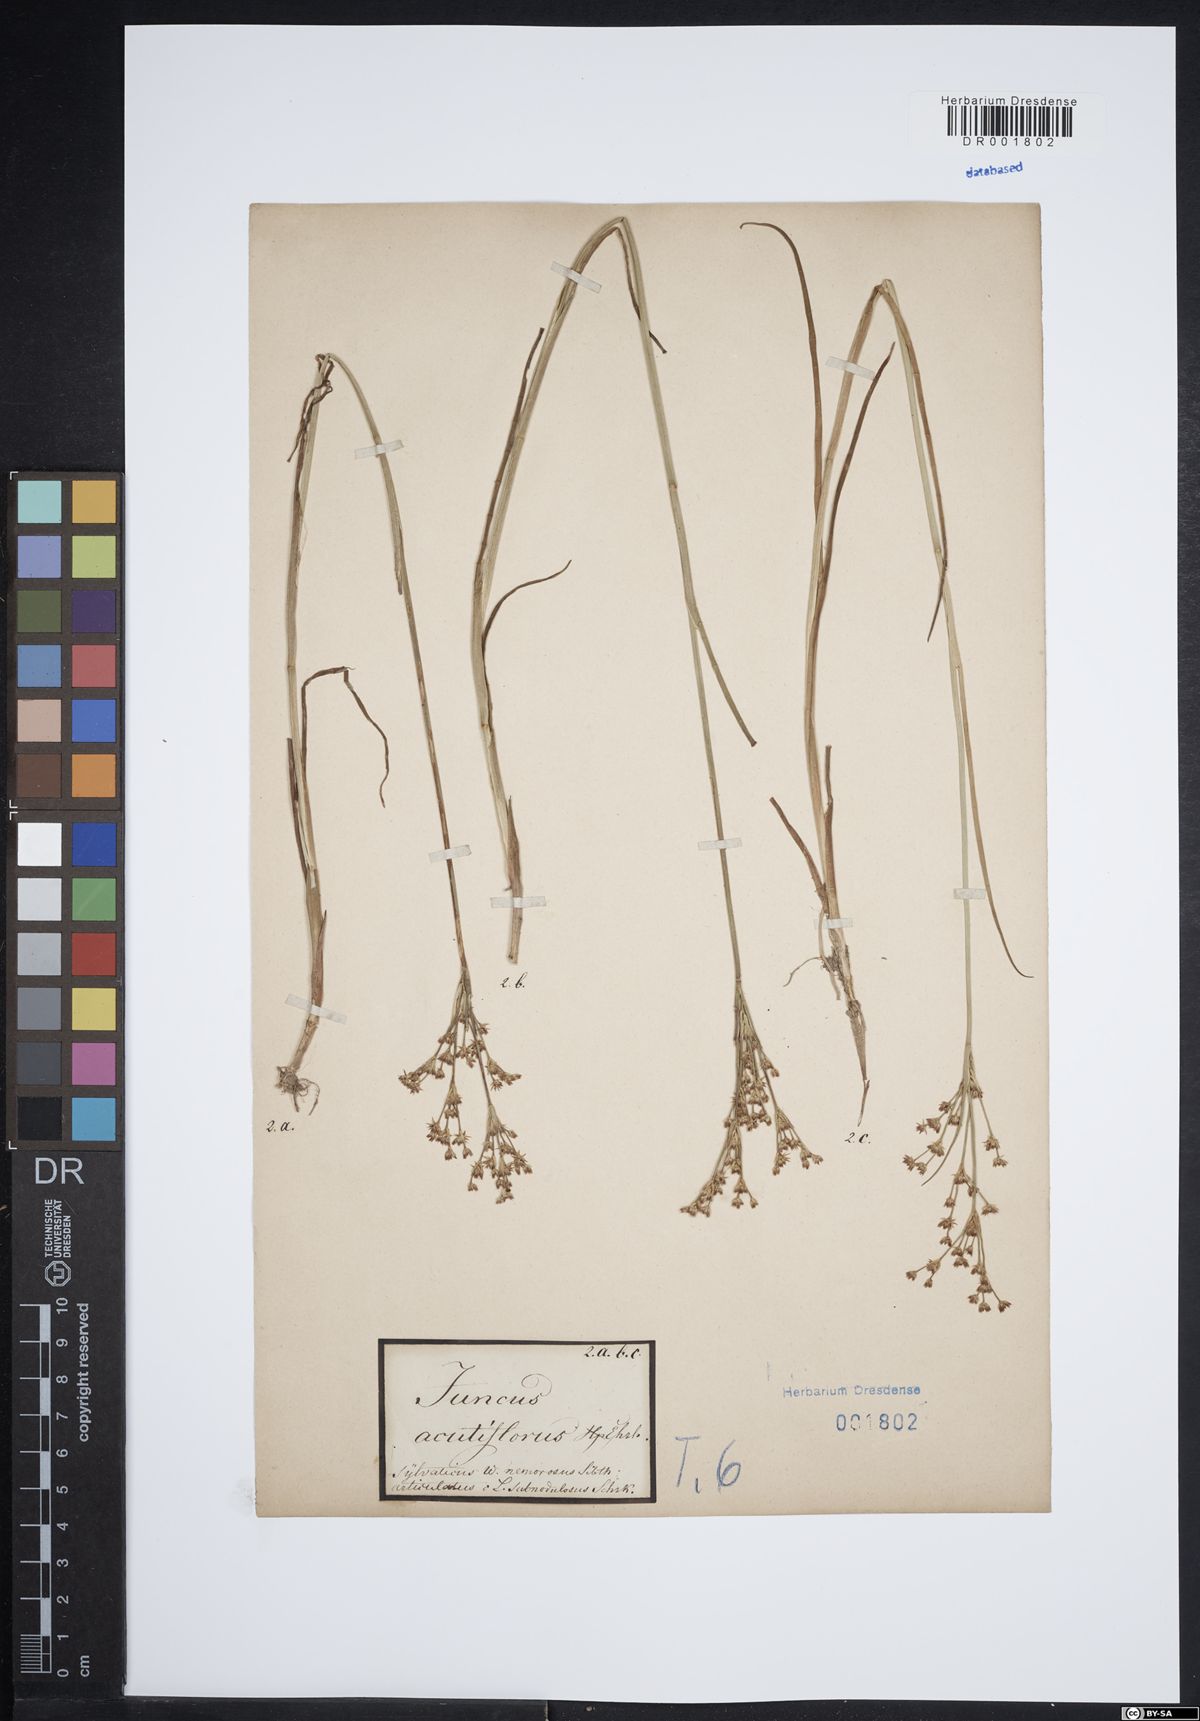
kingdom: Plantae
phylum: Tracheophyta
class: Liliopsida
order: Poales
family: Juncaceae
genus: Juncus
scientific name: Juncus acutiflorus
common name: Sharp-flowered rush
